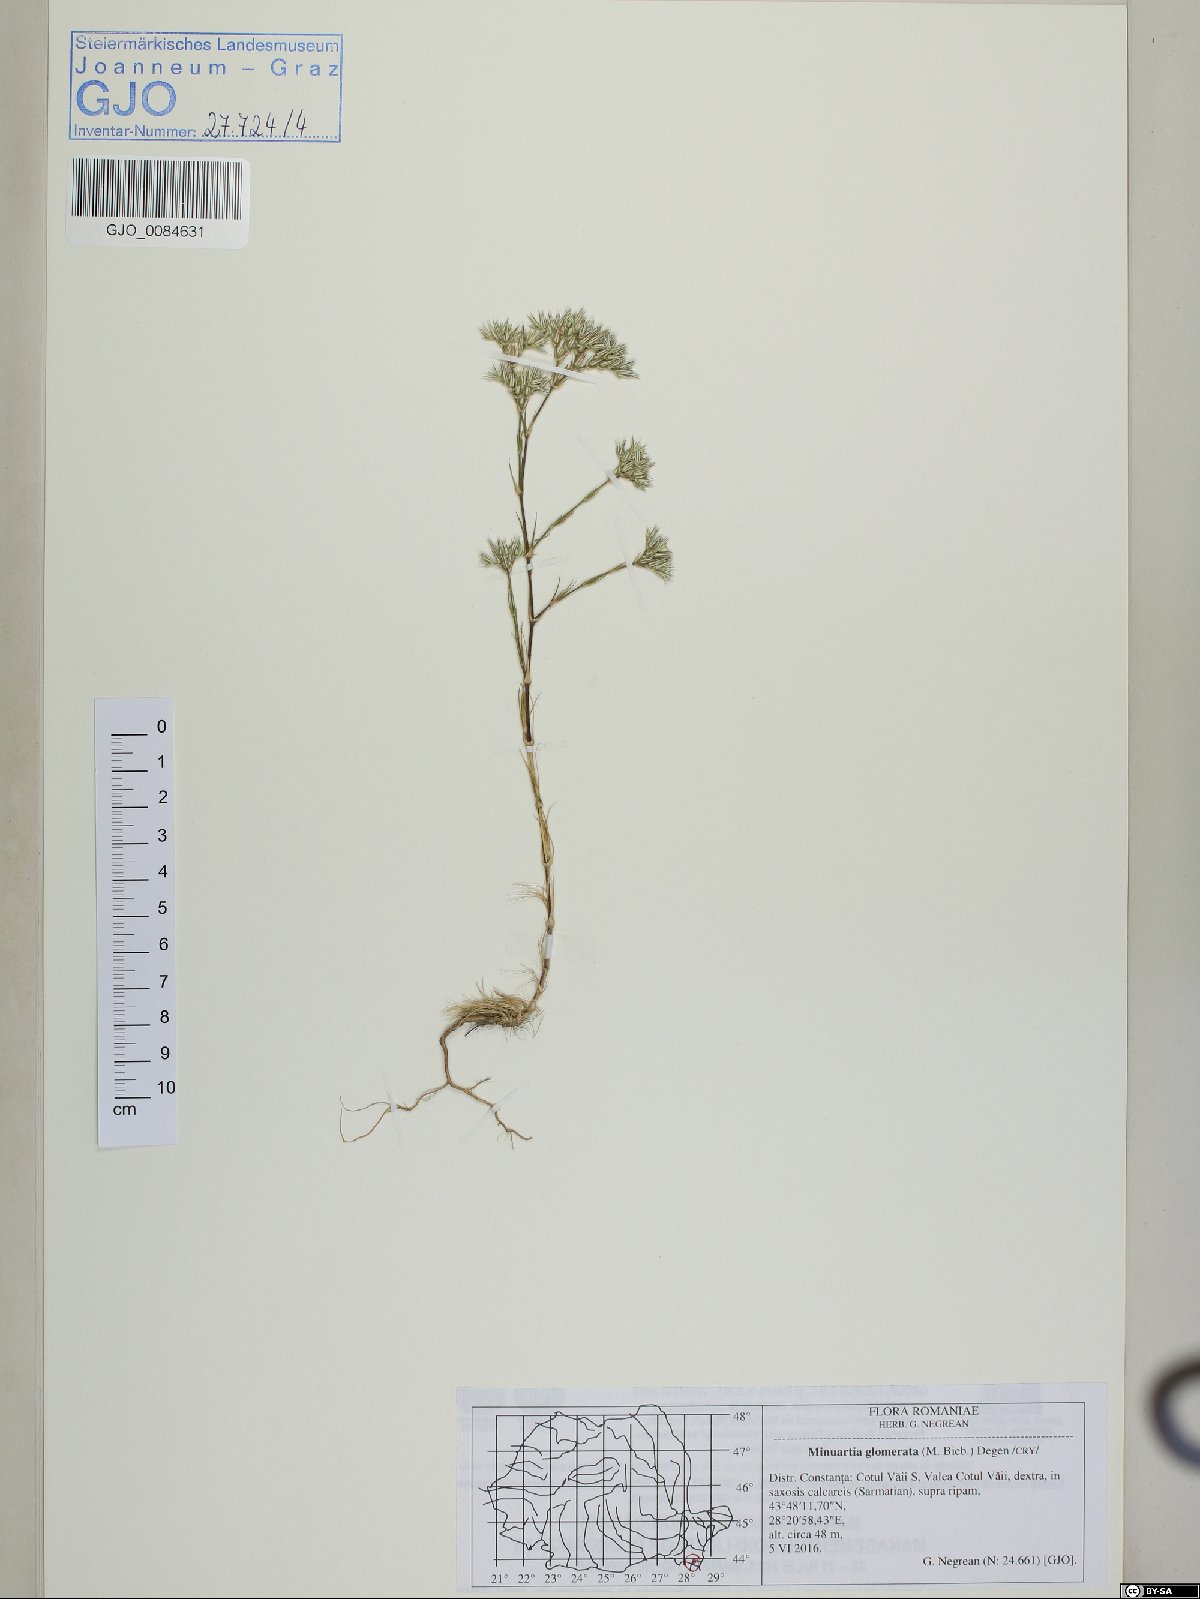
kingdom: Plantae
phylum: Tracheophyta
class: Magnoliopsida
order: Caryophyllales
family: Caryophyllaceae
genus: Minuartia
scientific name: Minuartia glomerata
